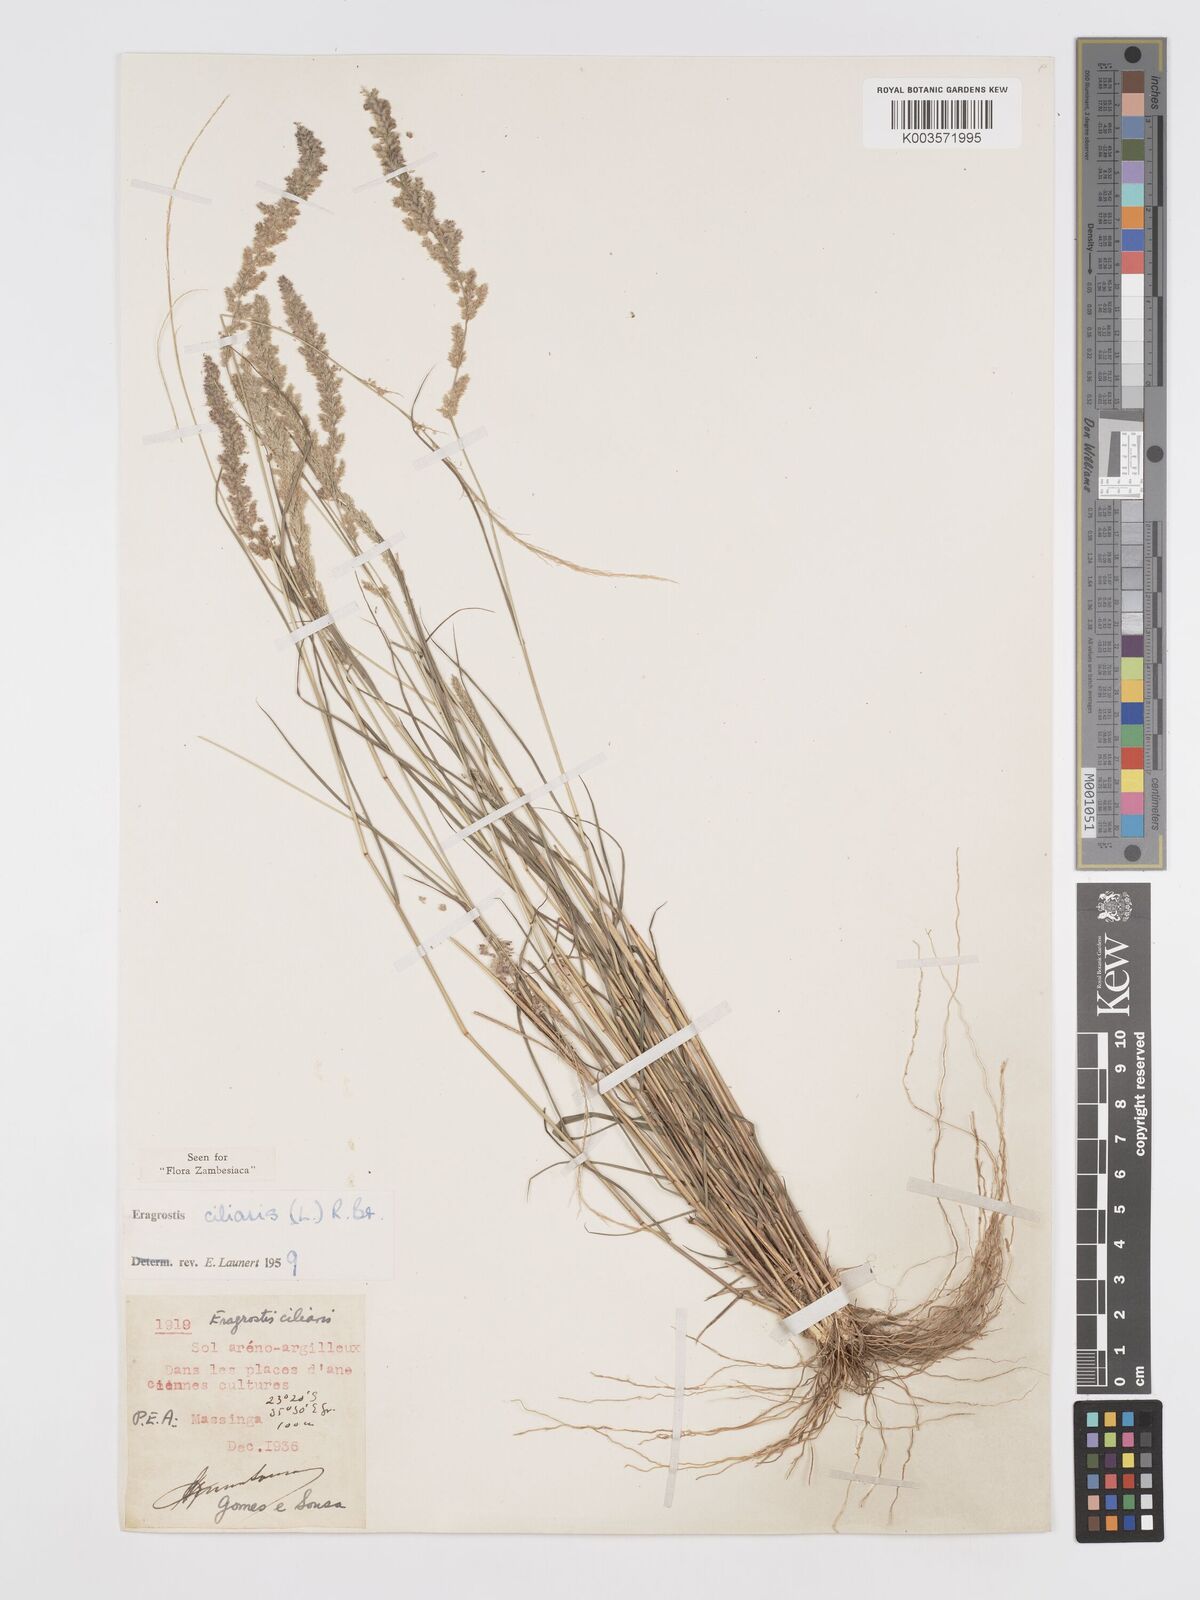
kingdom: Plantae
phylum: Tracheophyta
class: Liliopsida
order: Poales
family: Poaceae
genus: Eragrostis
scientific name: Eragrostis ciliaris
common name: Gophertail lovegrass
